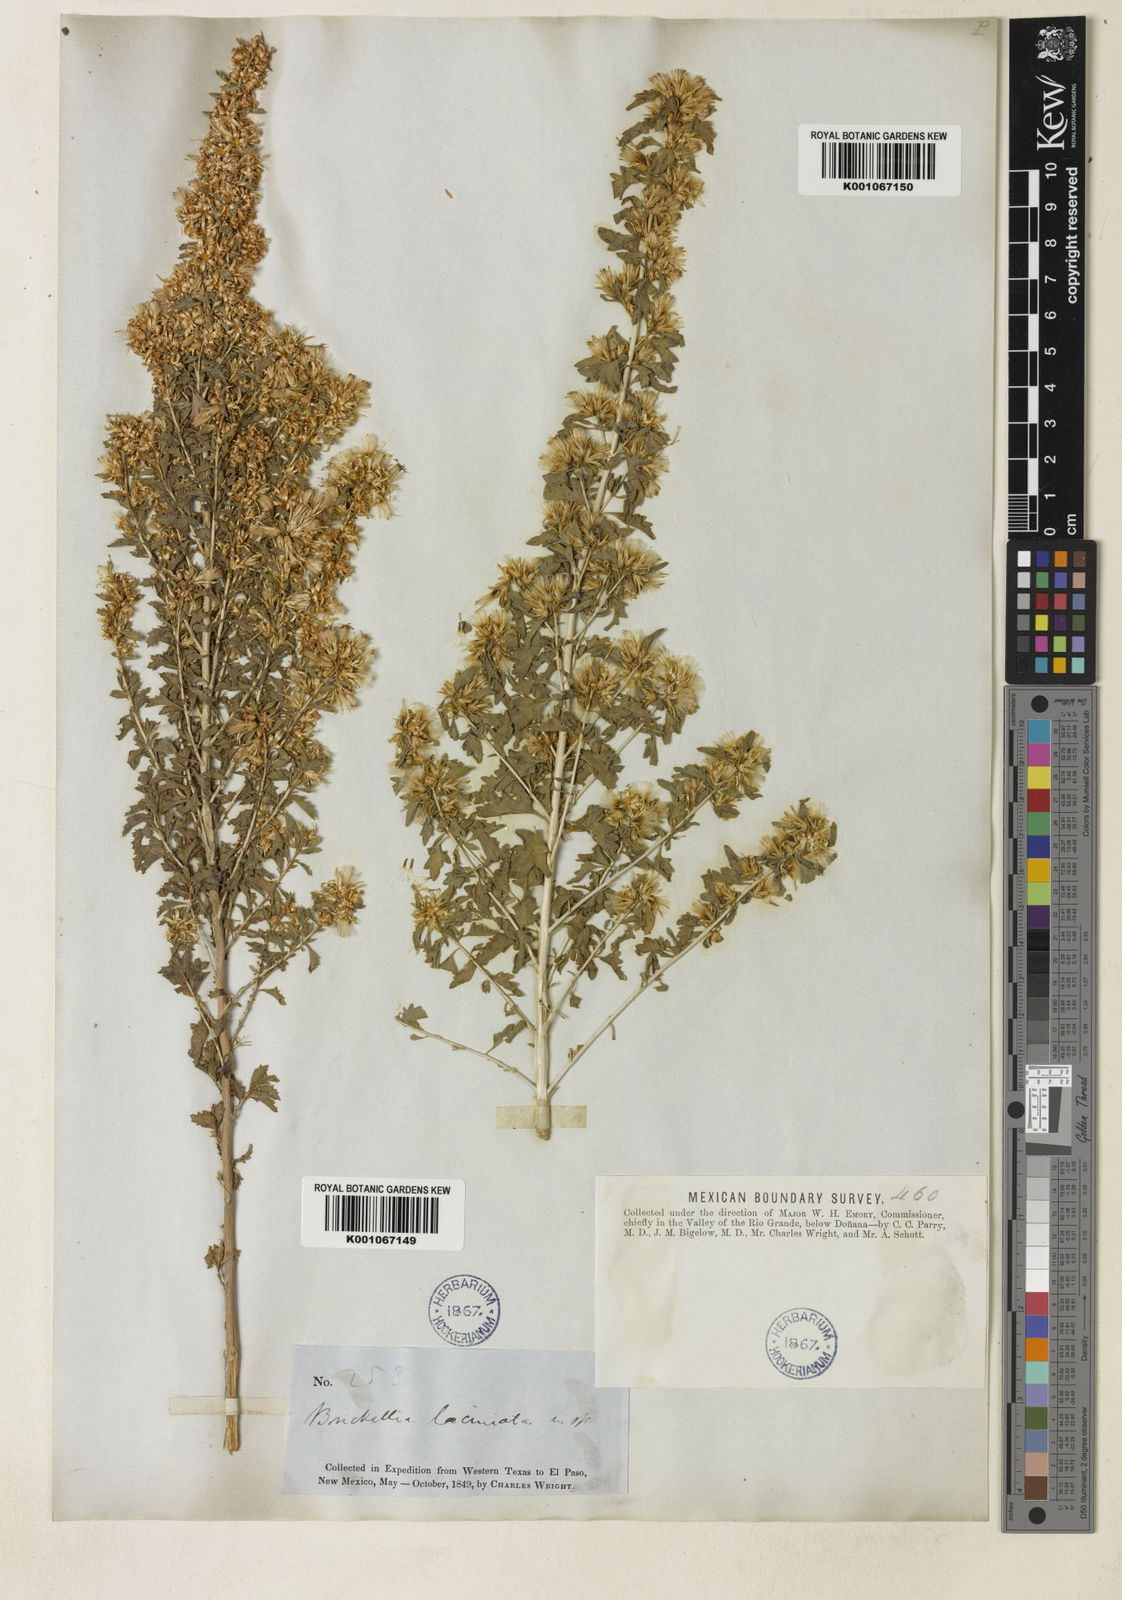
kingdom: Plantae
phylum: Tracheophyta
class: Magnoliopsida
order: Asterales
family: Asteraceae
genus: Brickellia
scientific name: Brickellia laciniata
